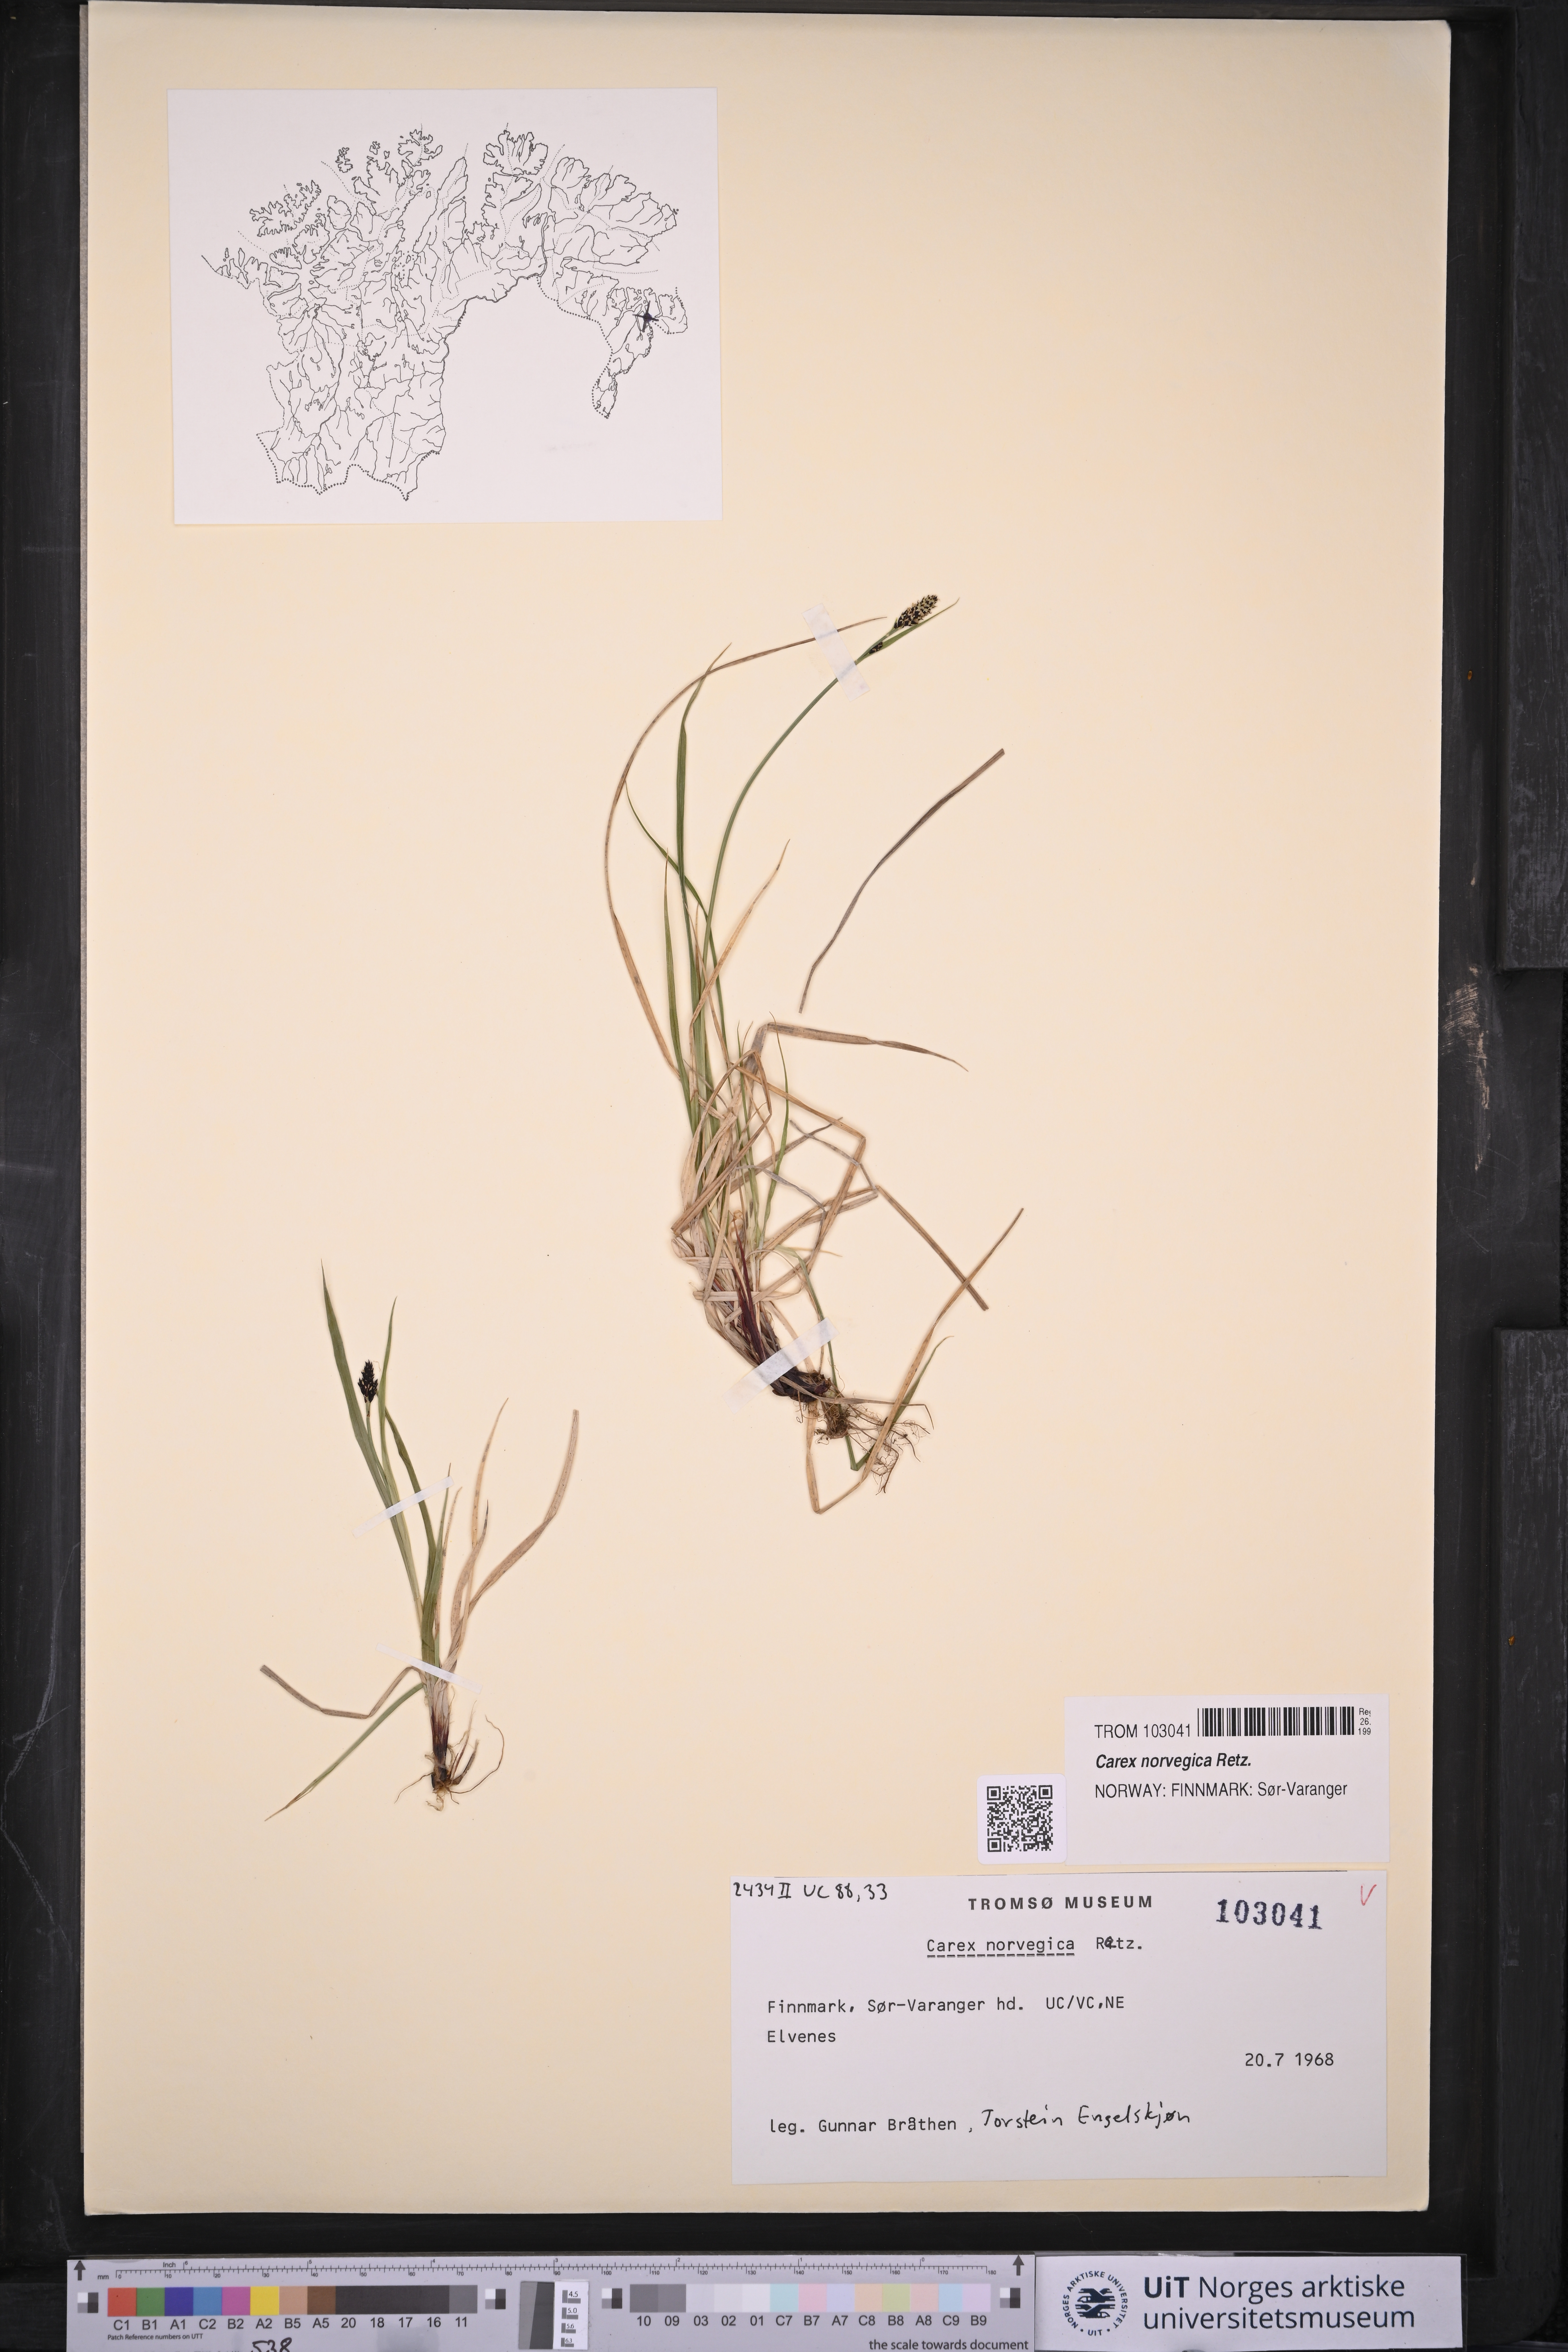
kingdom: Plantae
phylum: Tracheophyta
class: Liliopsida
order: Poales
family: Cyperaceae
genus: Carex
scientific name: Carex norvegica
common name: Close-headed alpine-sedge
